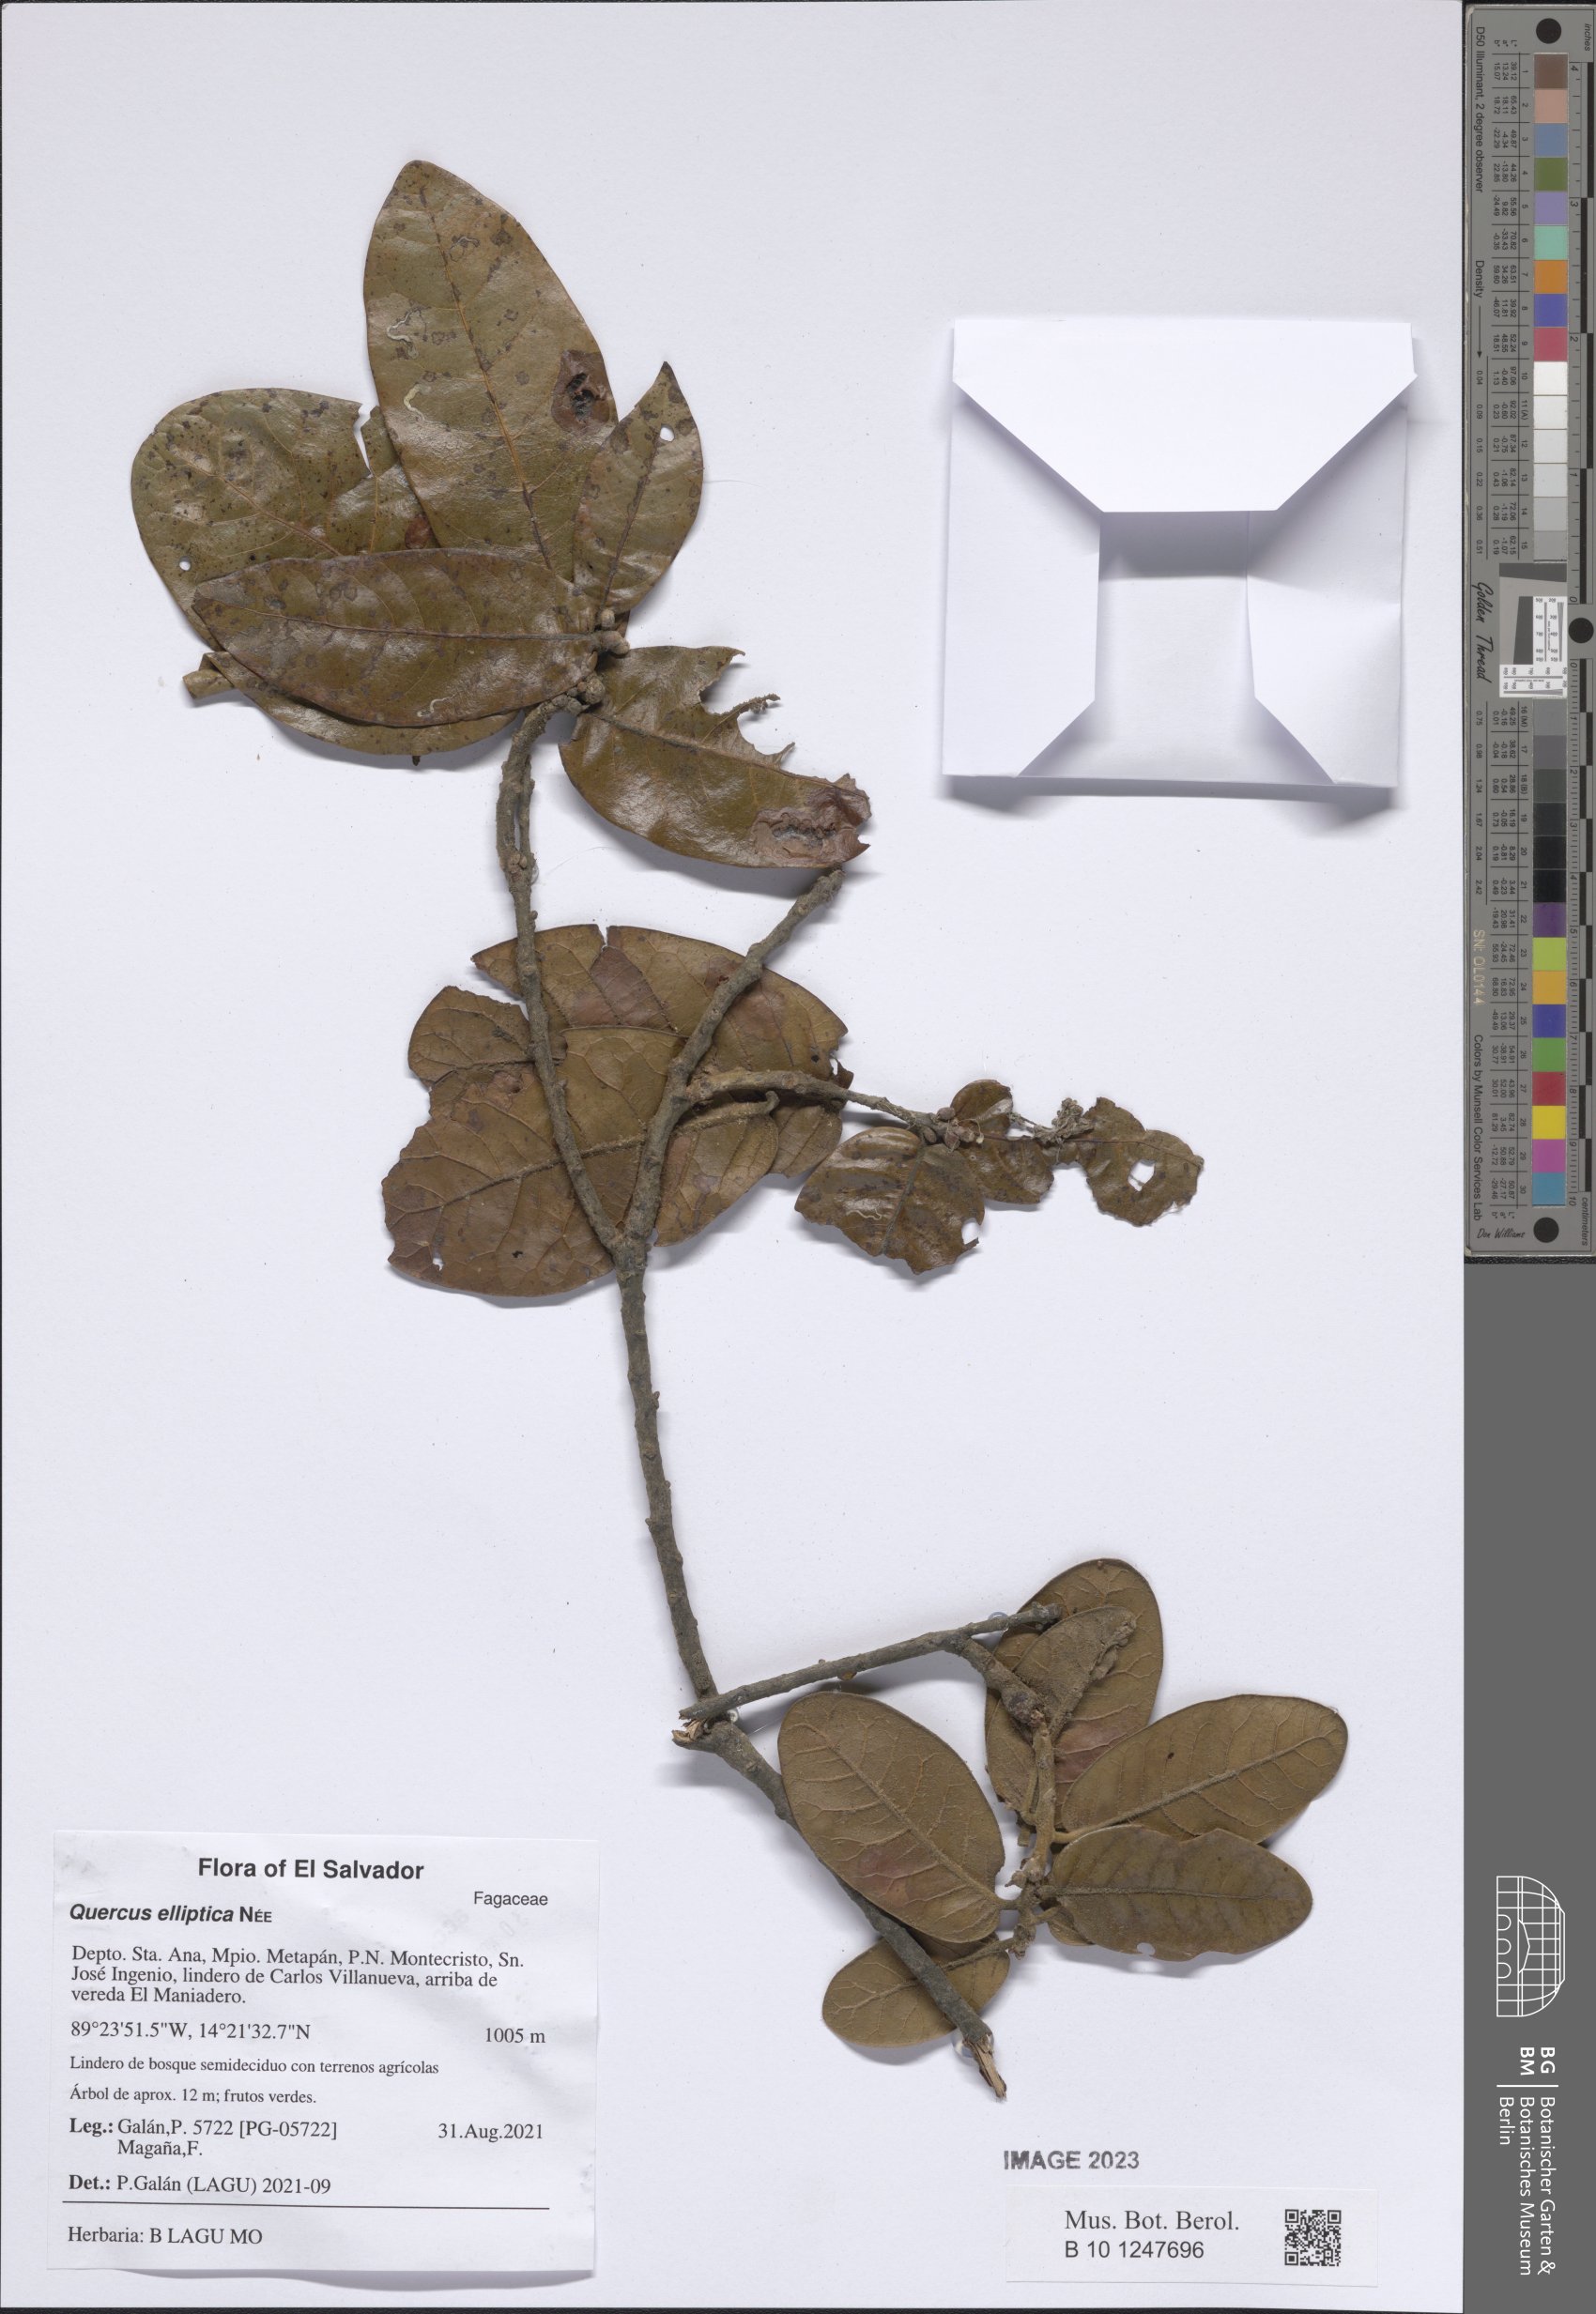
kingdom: Plantae
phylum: Tracheophyta
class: Magnoliopsida
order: Fagales
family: Fagaceae
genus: Quercus
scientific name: Quercus elliptica
